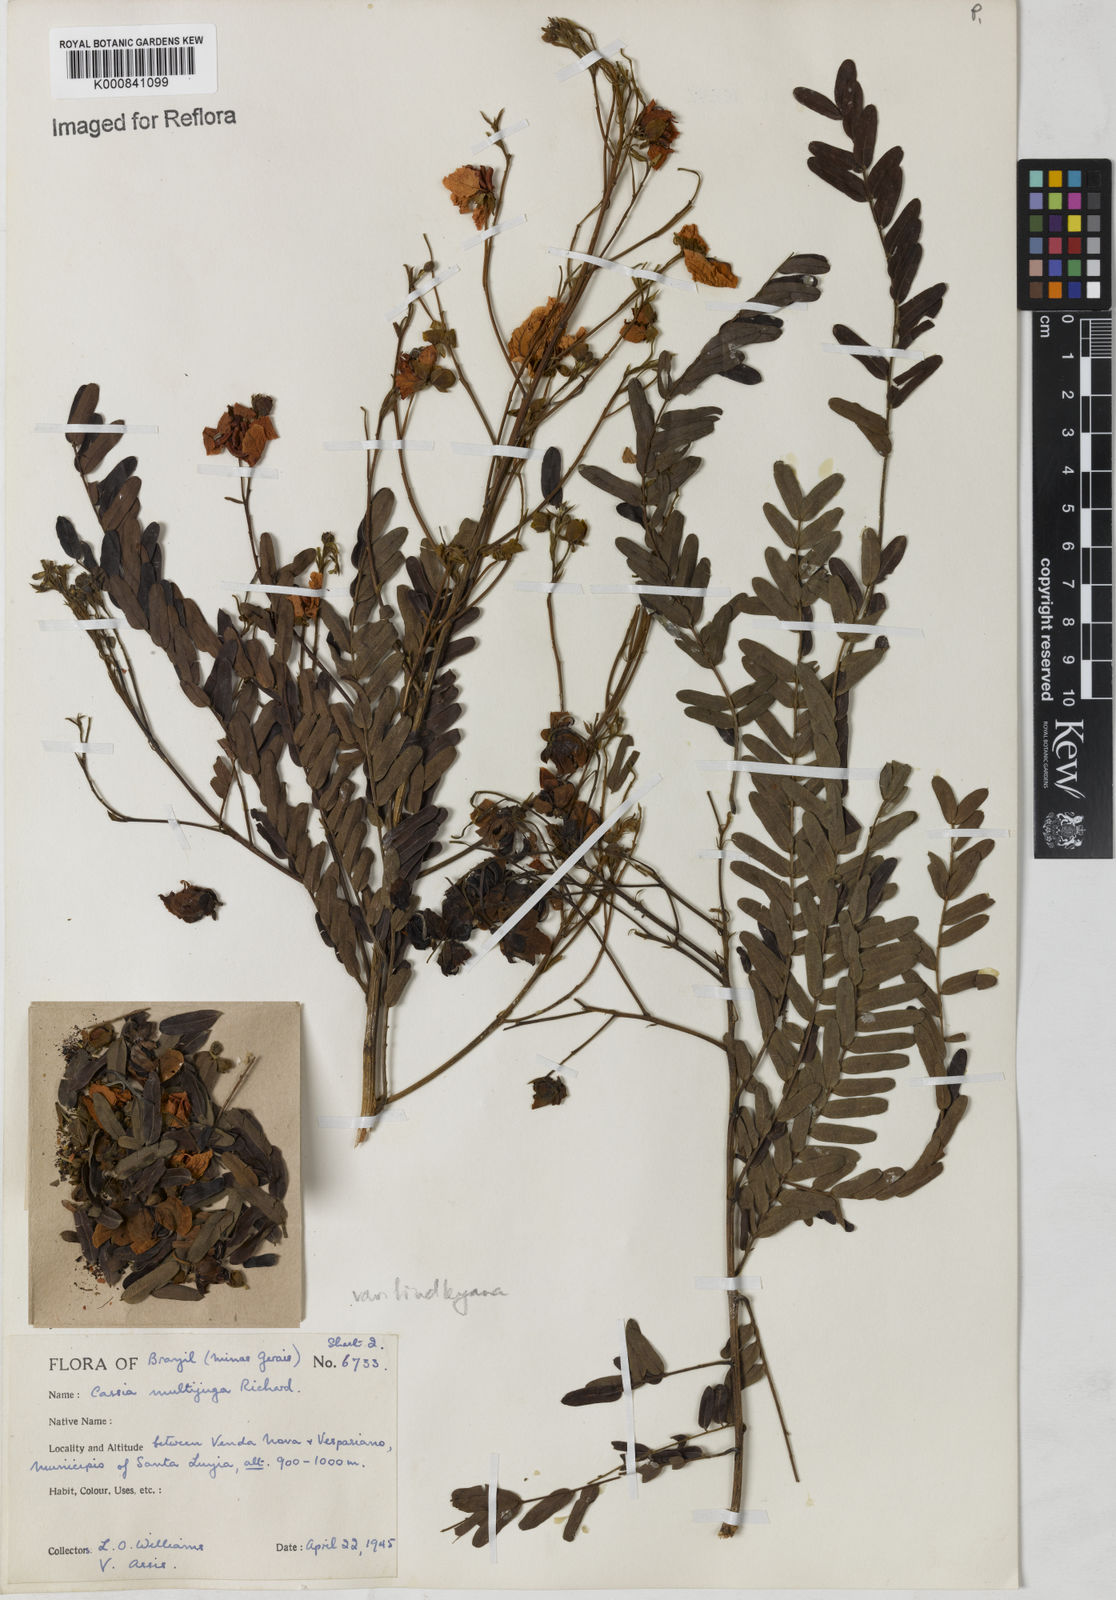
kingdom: Plantae
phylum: Tracheophyta
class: Magnoliopsida
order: Fabales
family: Fabaceae
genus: Senna
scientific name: Senna multijuga
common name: False sicklepod
